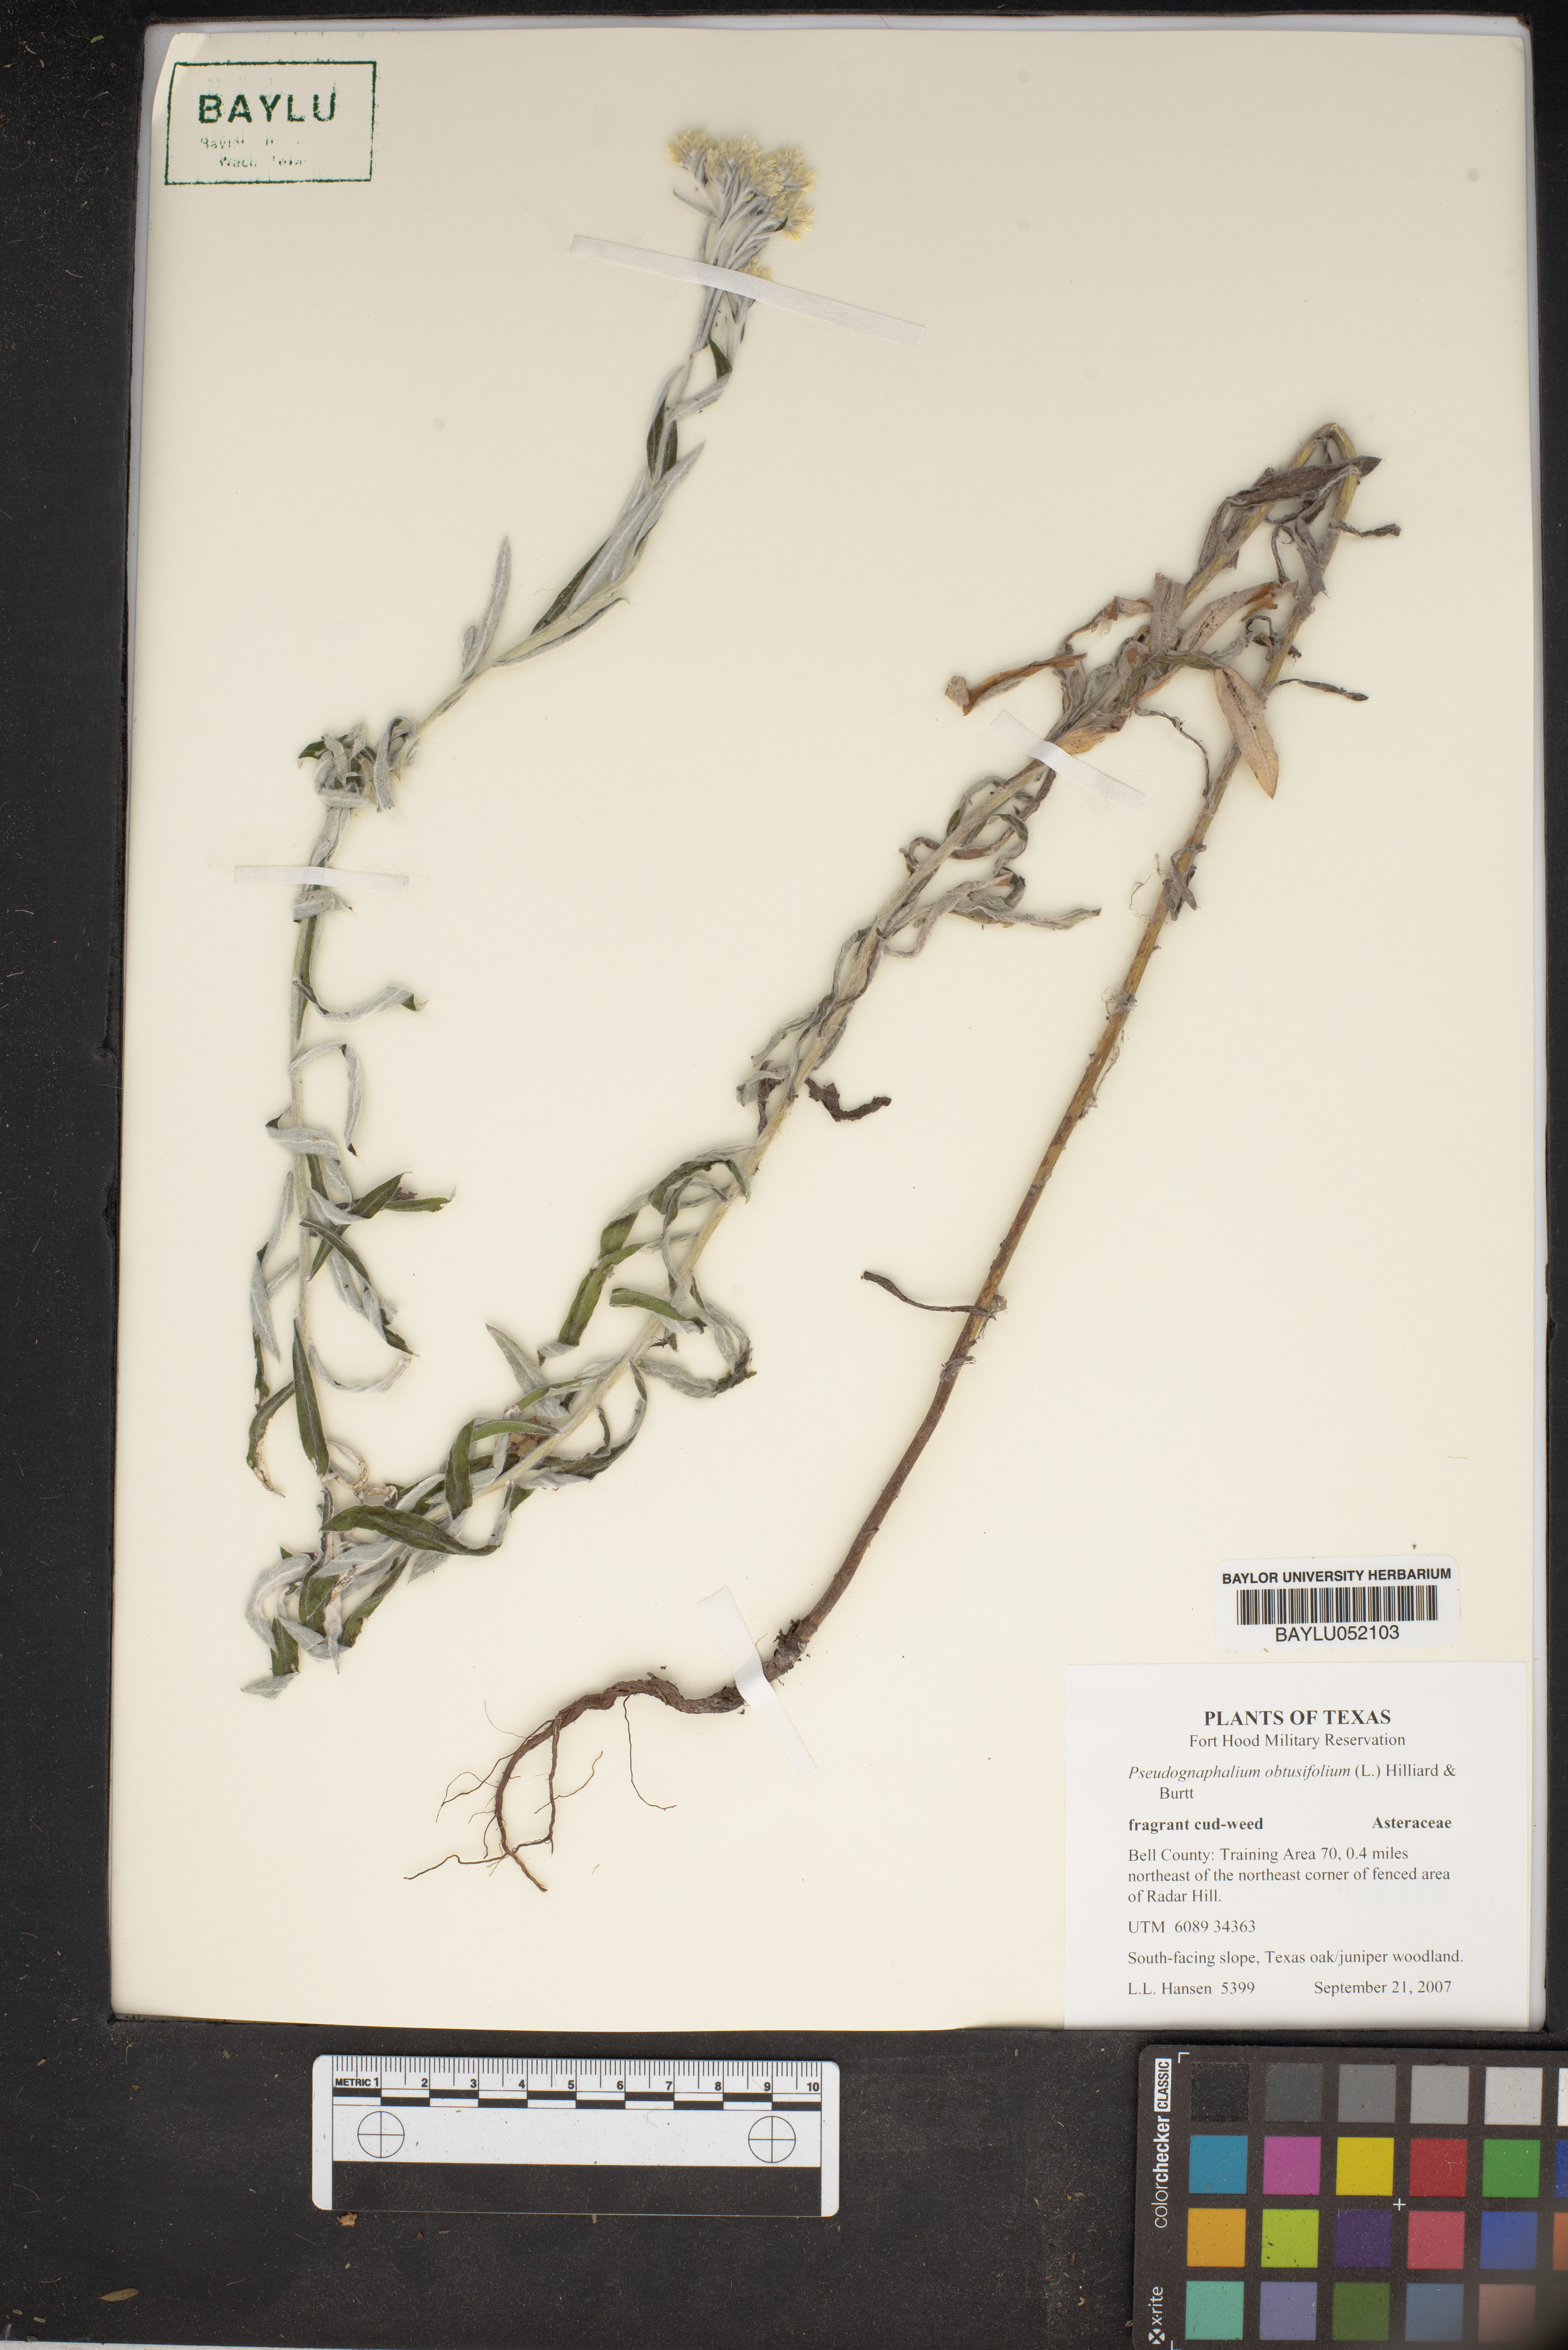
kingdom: Plantae
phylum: Tracheophyta
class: Magnoliopsida
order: Asterales
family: Asteraceae
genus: Pseudognaphalium
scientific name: Pseudognaphalium obtusifolium
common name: Eastern rabbit-tobacco
